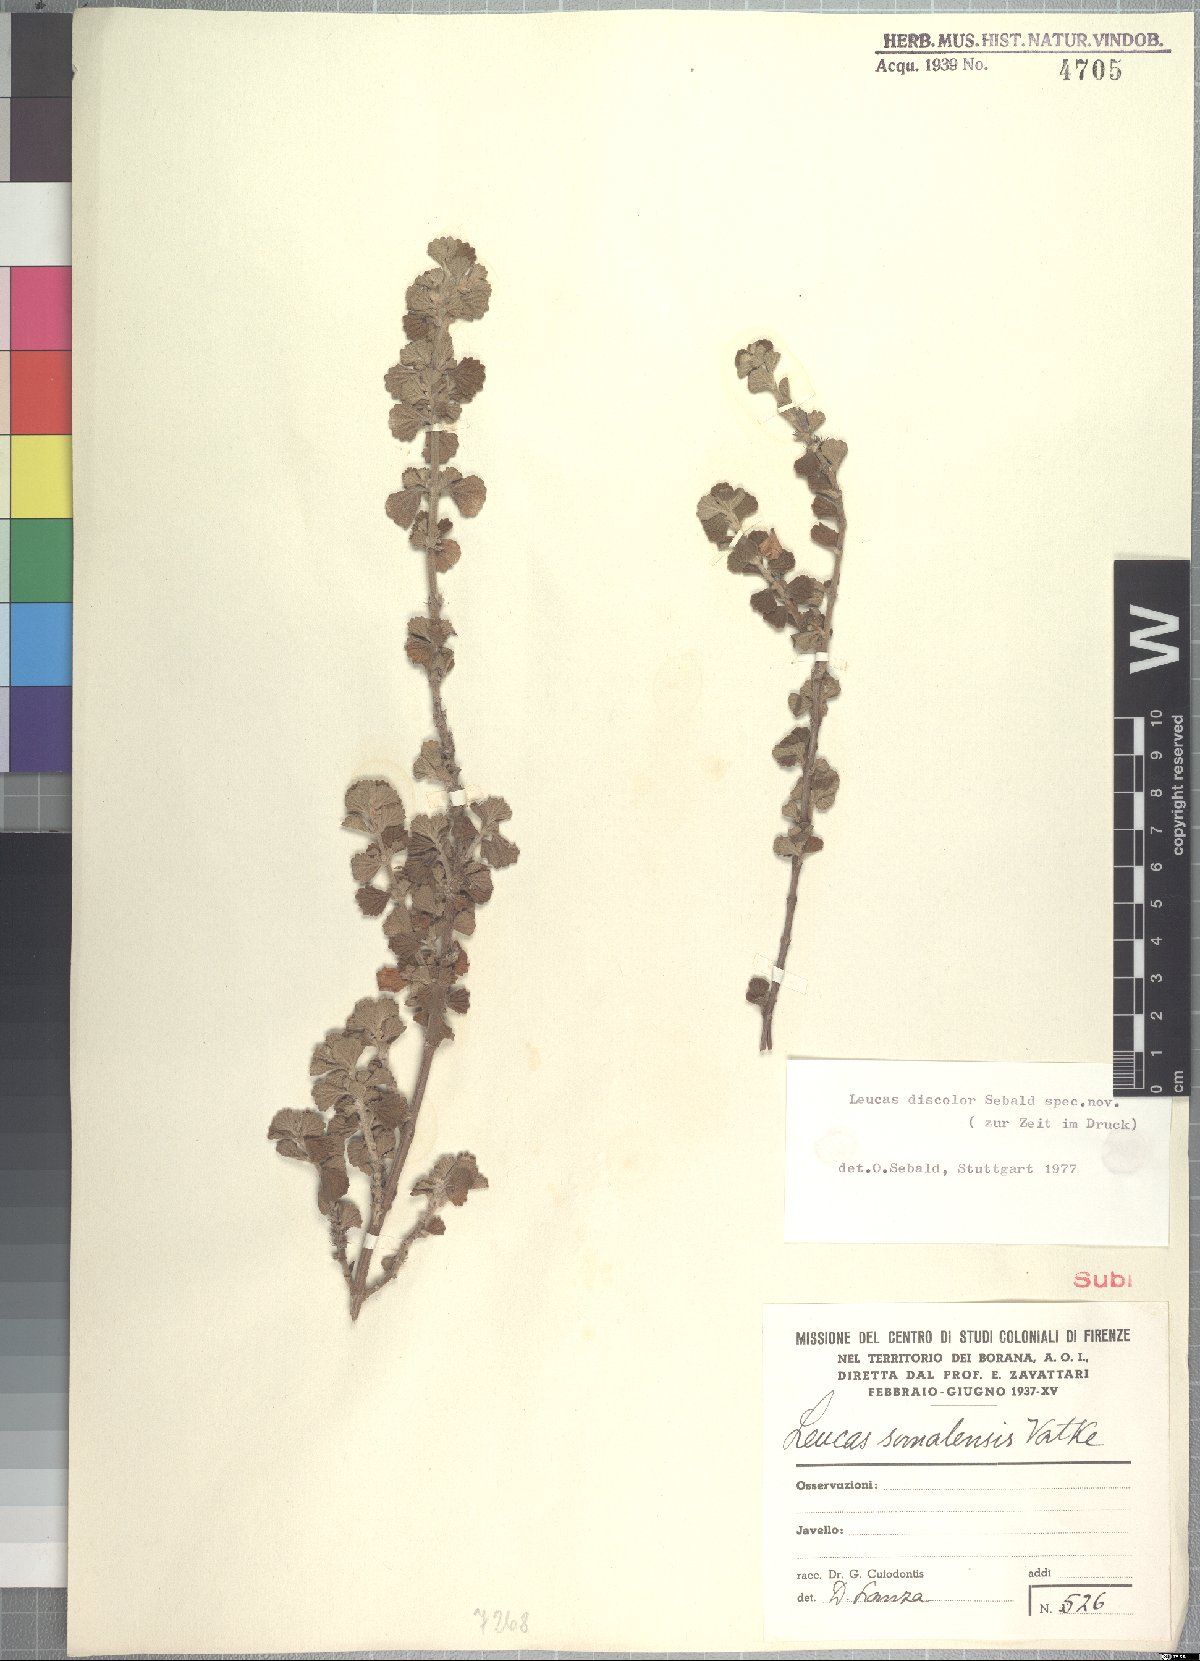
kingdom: Plantae
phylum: Tracheophyta
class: Magnoliopsida
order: Lamiales
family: Lamiaceae
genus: Leucas
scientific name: Leucas discolor
